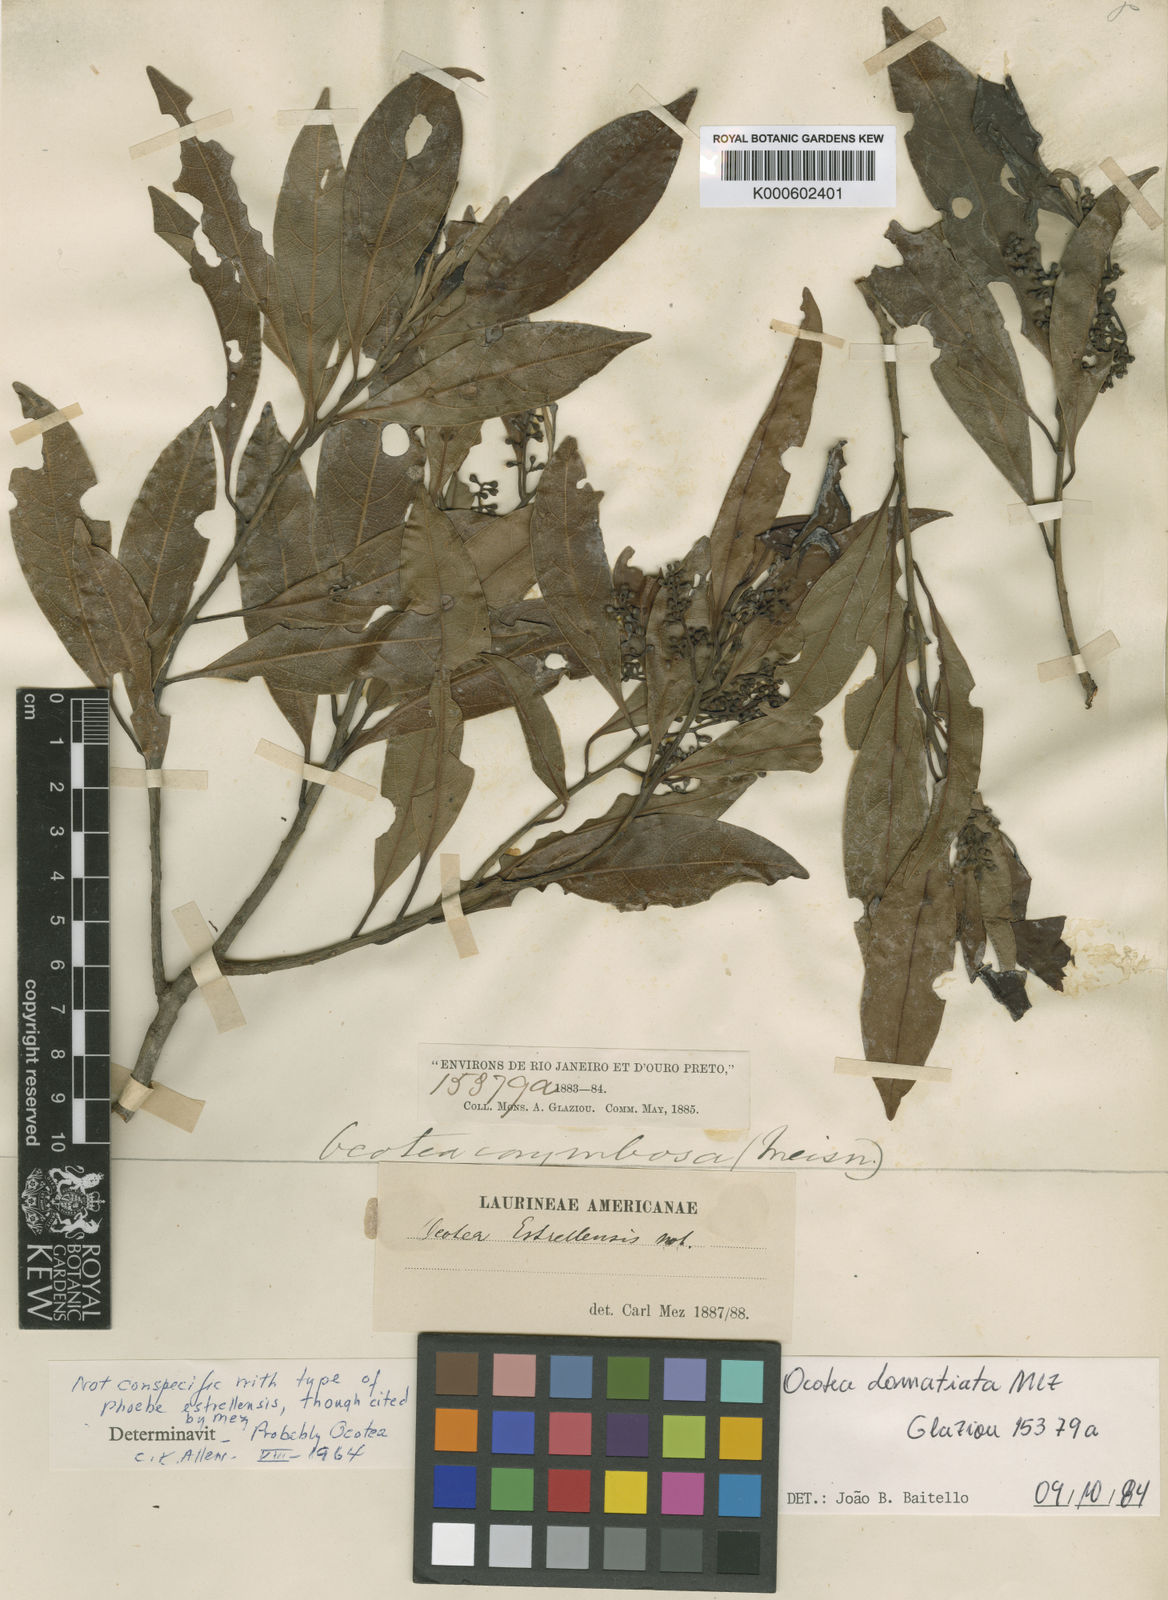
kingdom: Plantae
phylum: Tracheophyta
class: Magnoliopsida
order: Laurales
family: Lauraceae
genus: Ocotea
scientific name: Ocotea
